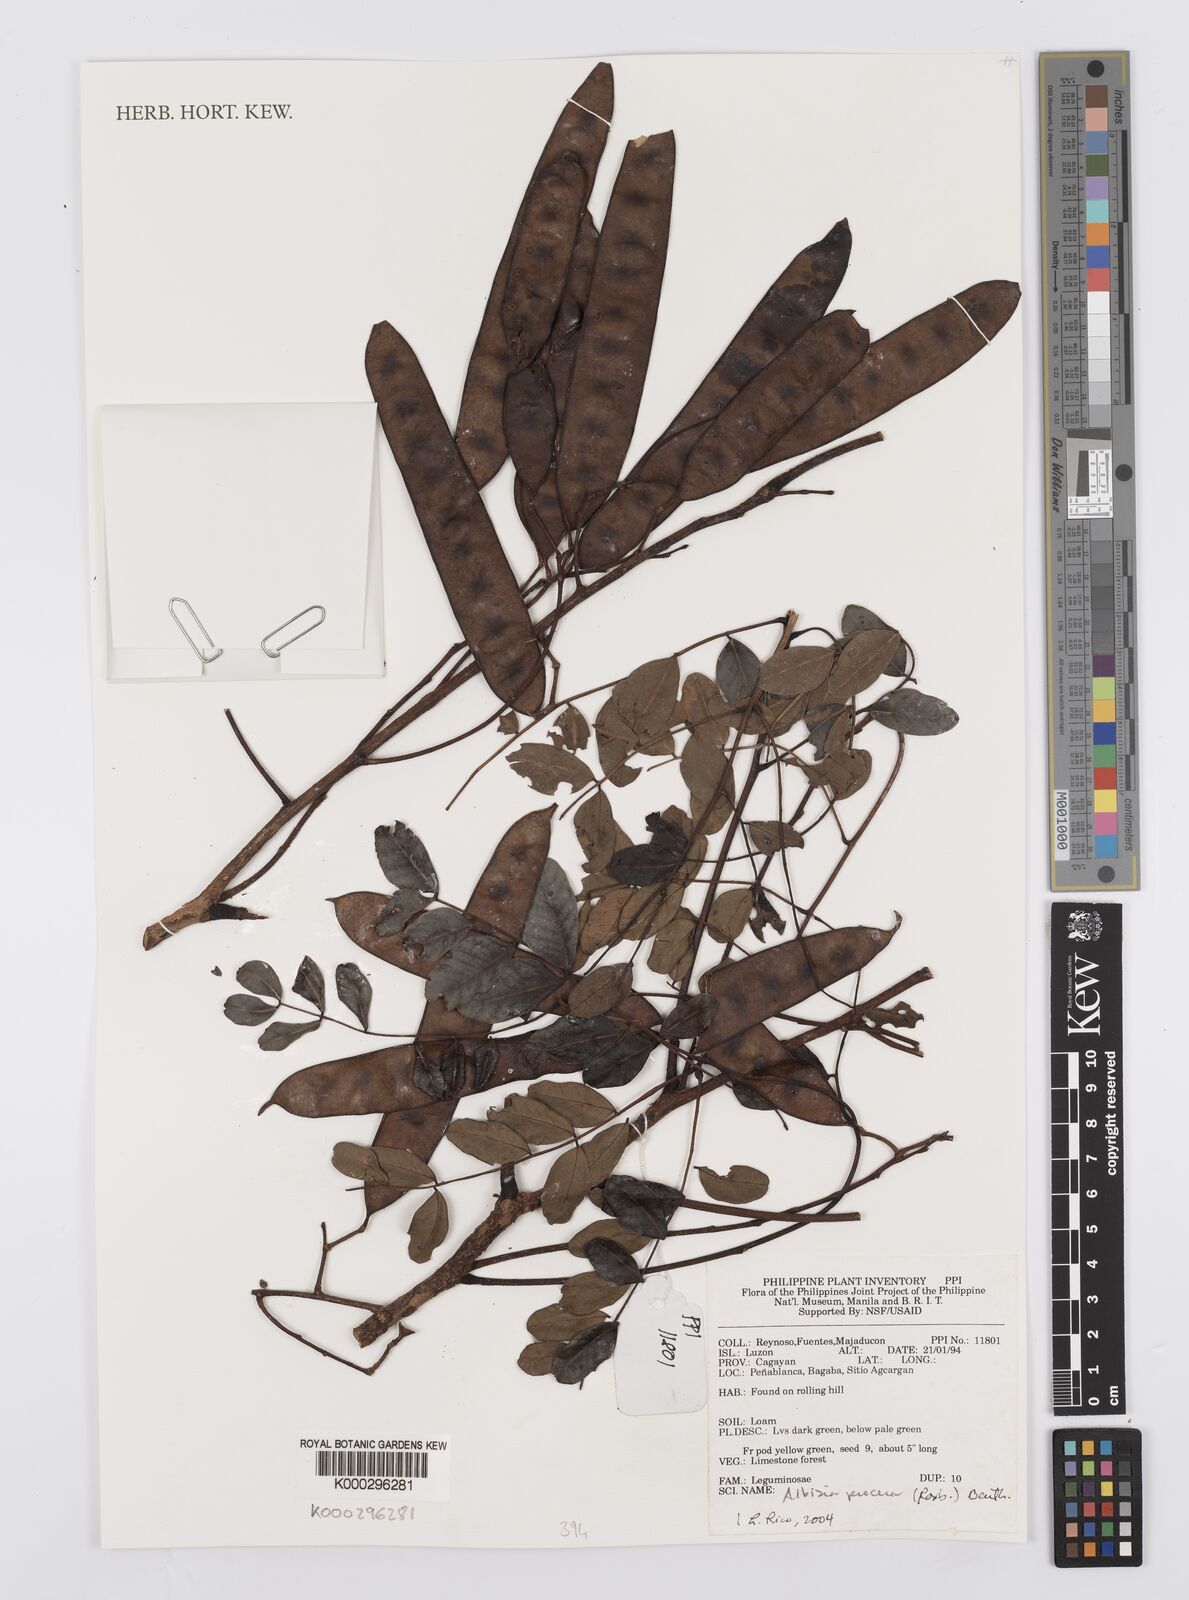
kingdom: Plantae
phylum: Tracheophyta
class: Magnoliopsida
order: Fabales
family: Fabaceae
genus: Albizia
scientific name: Albizia procera
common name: Tall albizia
